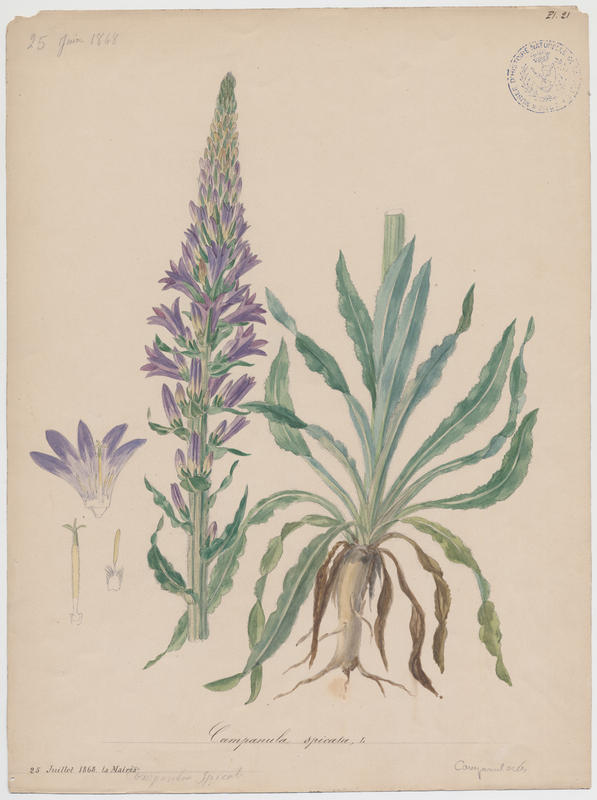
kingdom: Plantae
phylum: Tracheophyta
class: Magnoliopsida
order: Asterales
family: Campanulaceae
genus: Campanula
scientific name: Campanula spicata
